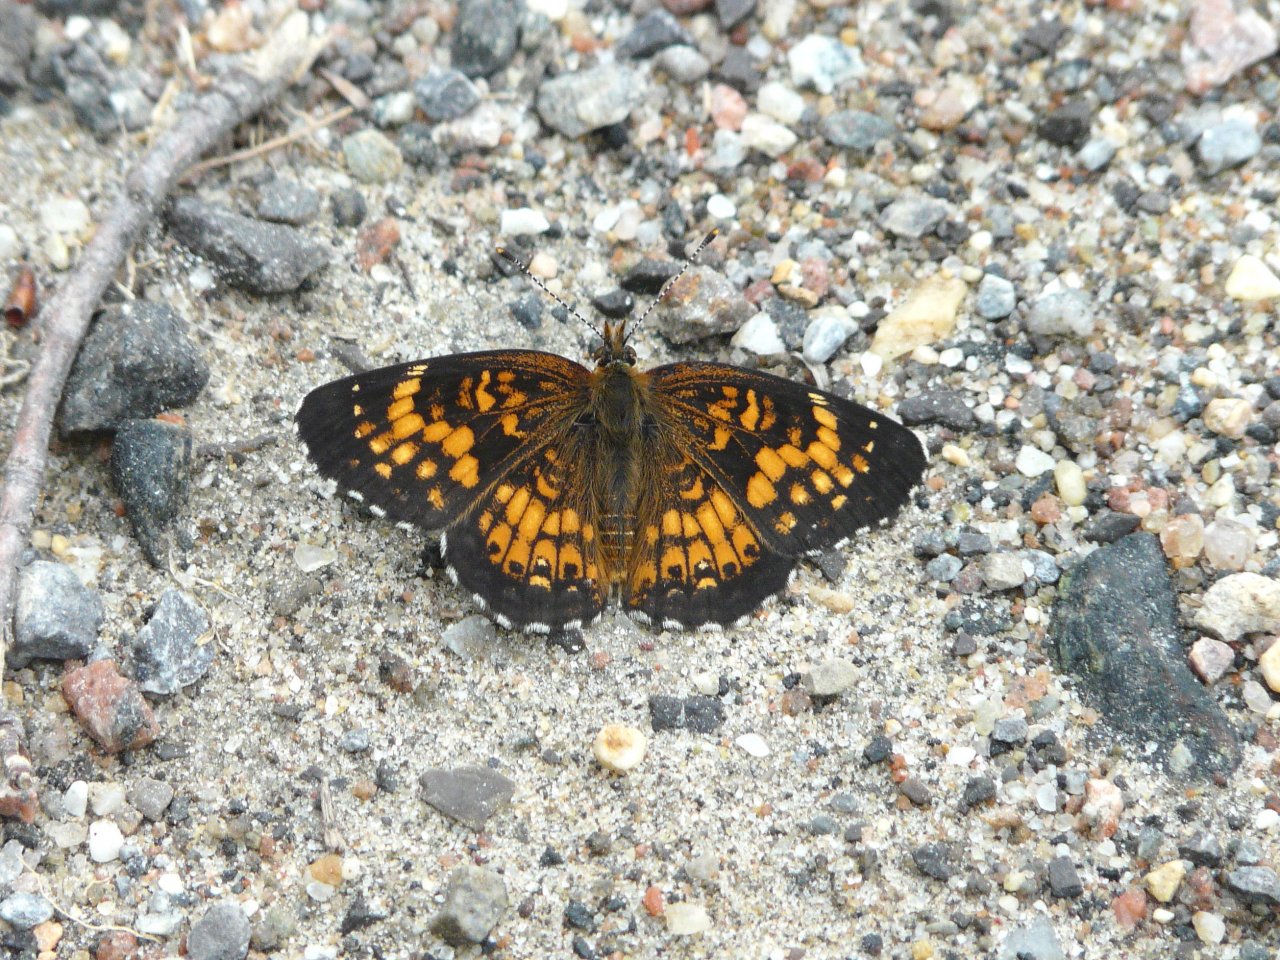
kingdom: Animalia
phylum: Arthropoda
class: Insecta
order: Lepidoptera
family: Nymphalidae
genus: Chlosyne
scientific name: Chlosyne harrisii
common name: Harris's Checkerspot
